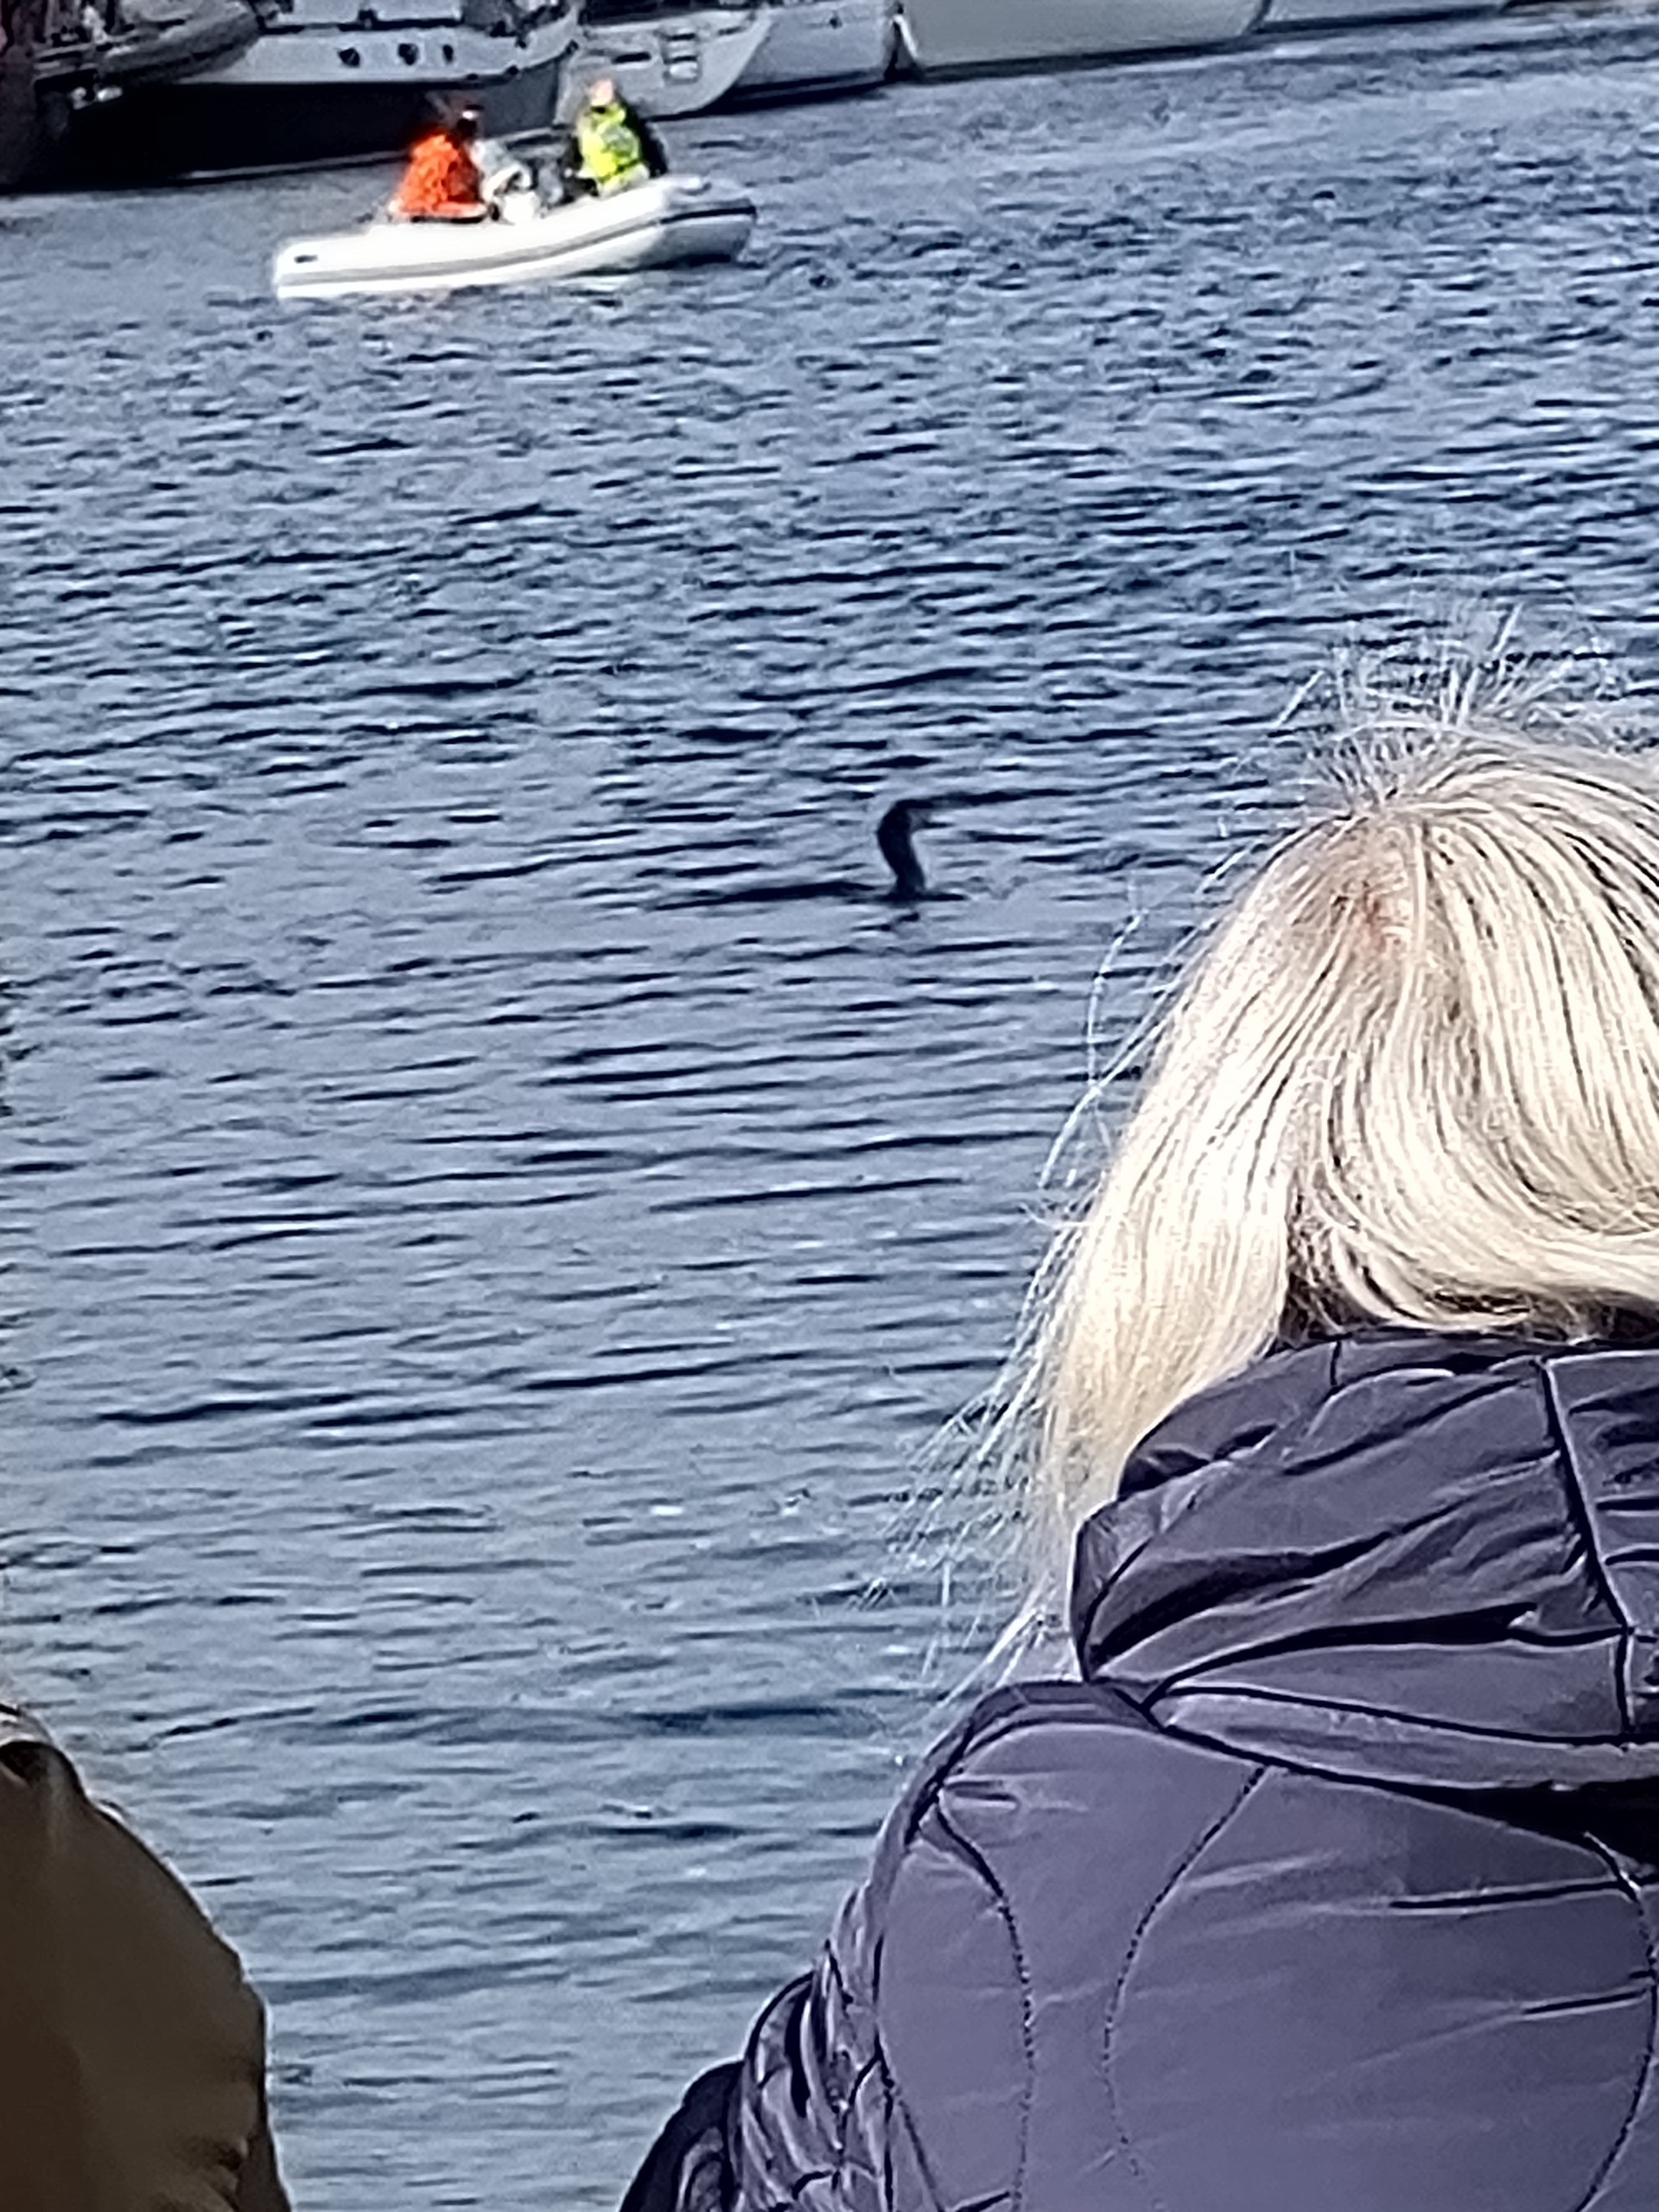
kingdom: Animalia
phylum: Chordata
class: Aves
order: Suliformes
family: Phalacrocoracidae
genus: Phalacrocorax
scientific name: Phalacrocorax carbo
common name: Skarv
